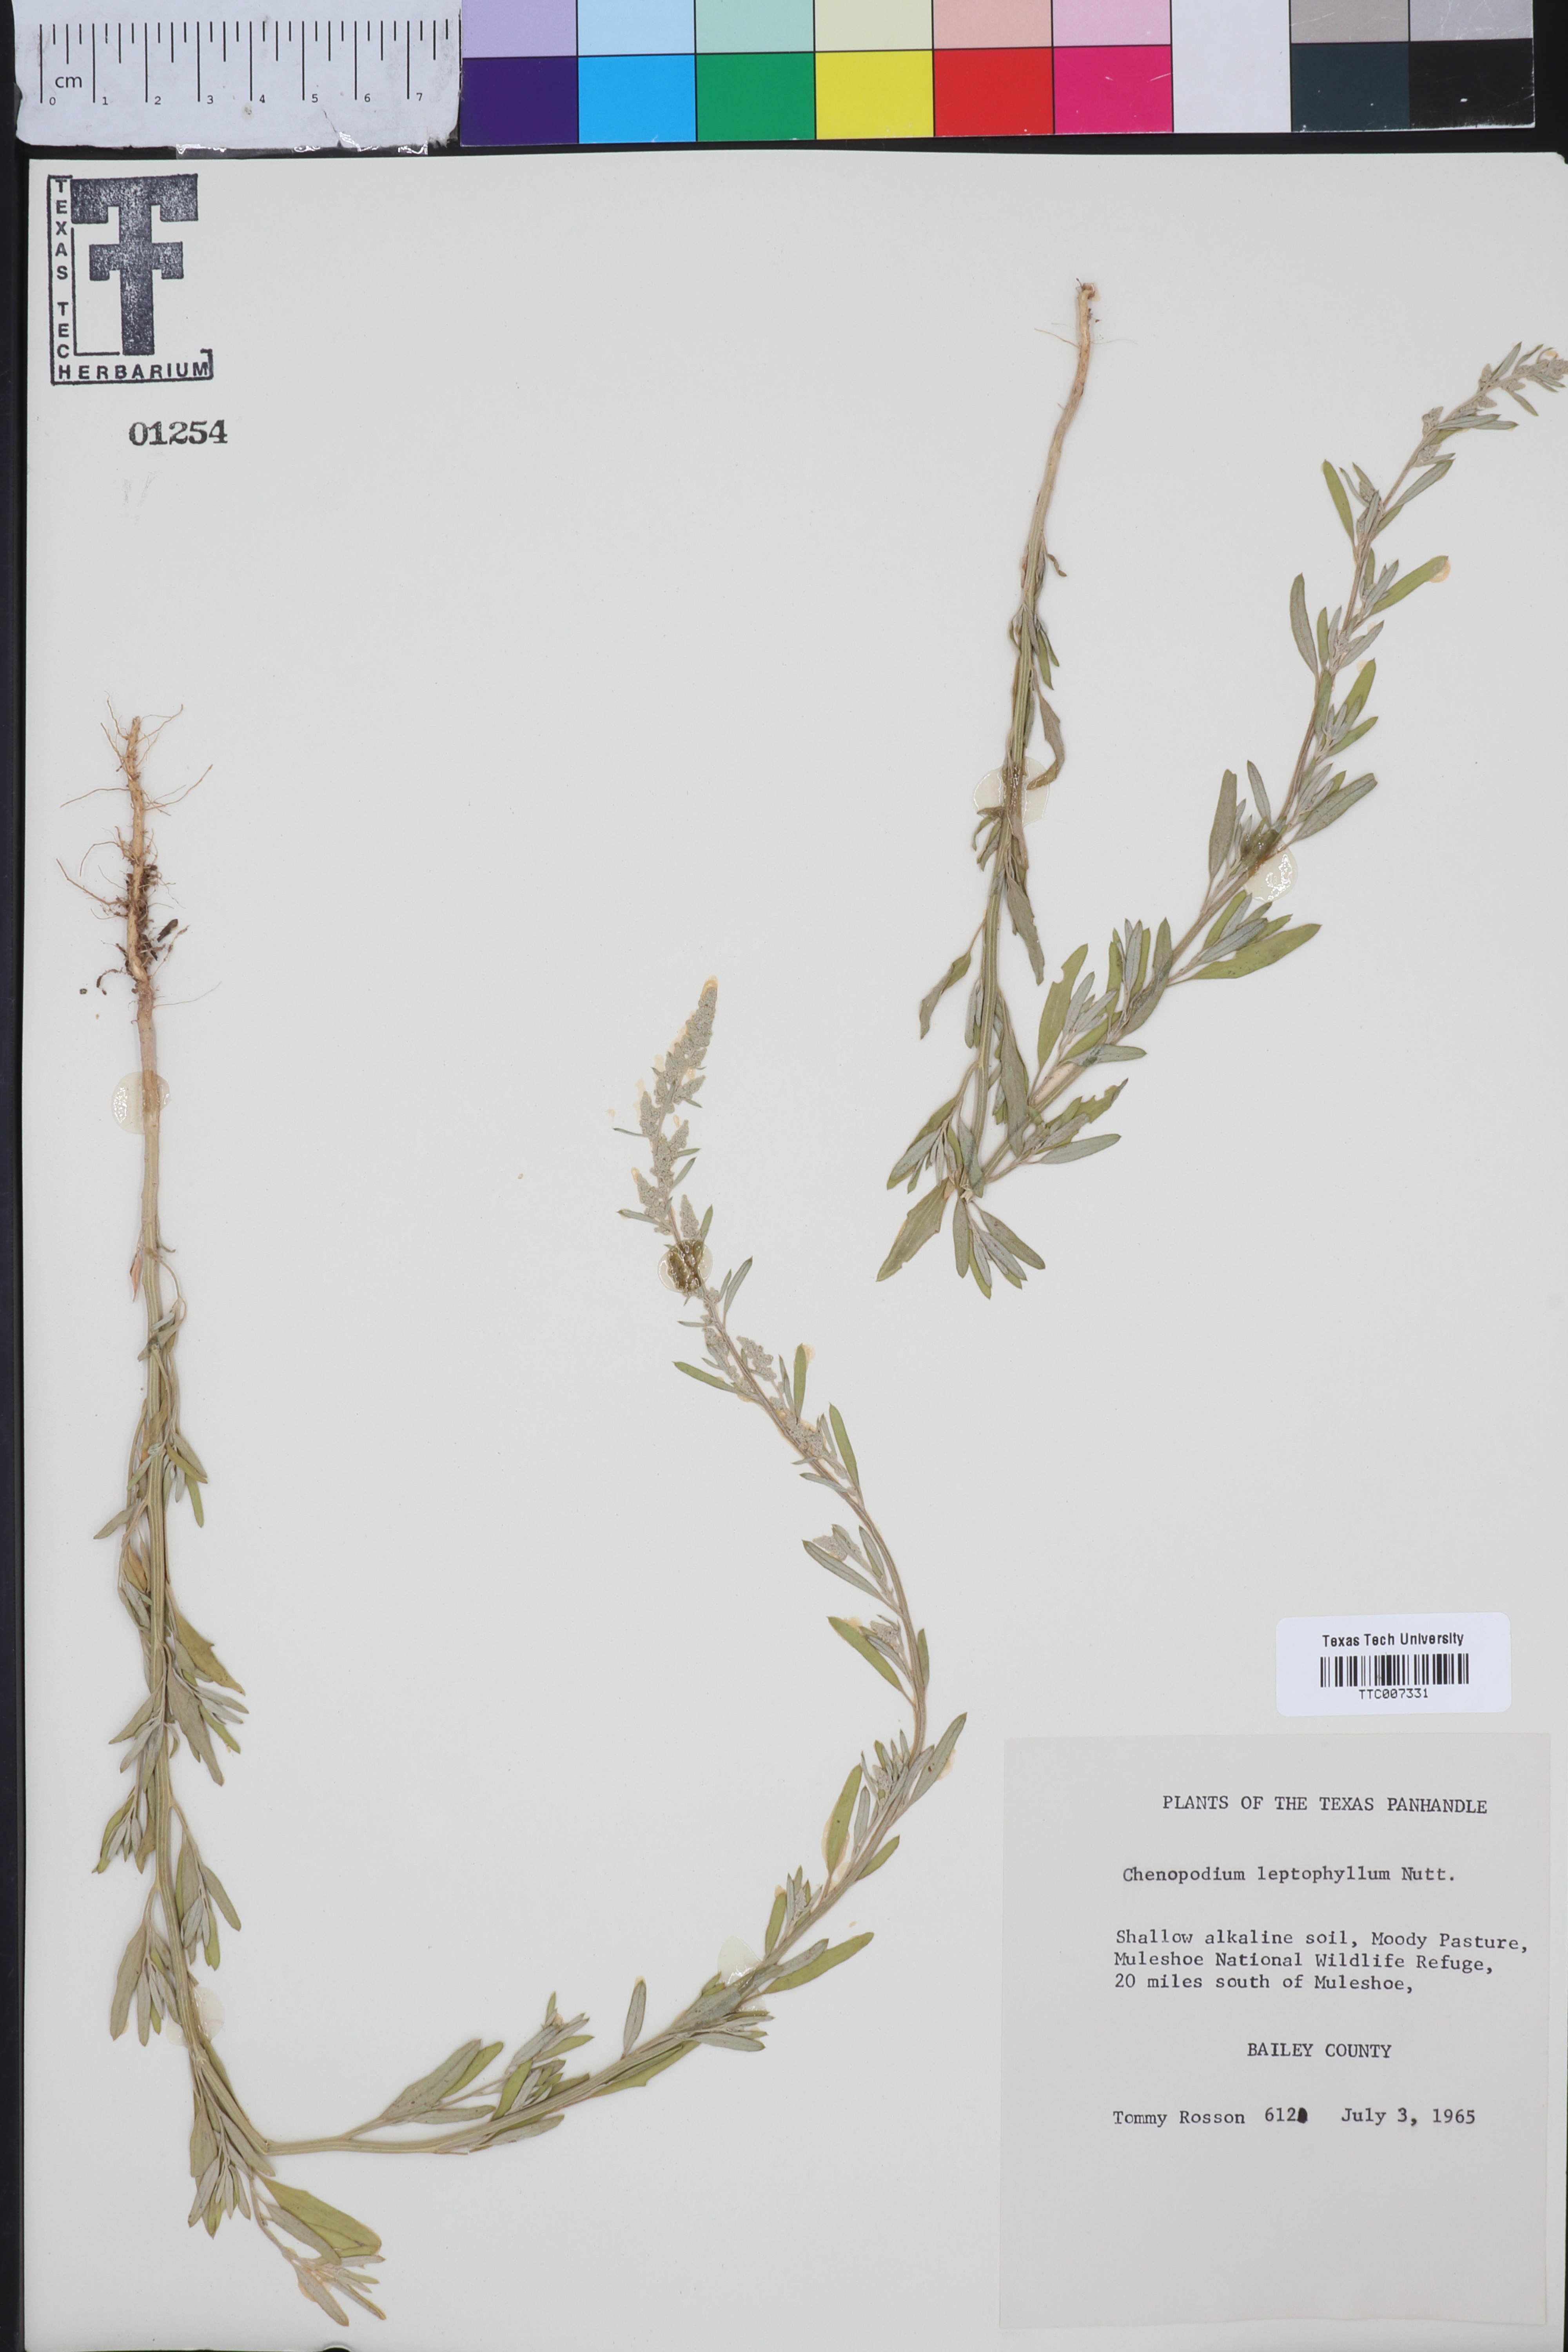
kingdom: Plantae
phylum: Tracheophyta
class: Magnoliopsida
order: Caryophyllales
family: Amaranthaceae
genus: Chenopodium
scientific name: Chenopodium leptophyllum
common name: Narrow-leaf goosefoot
